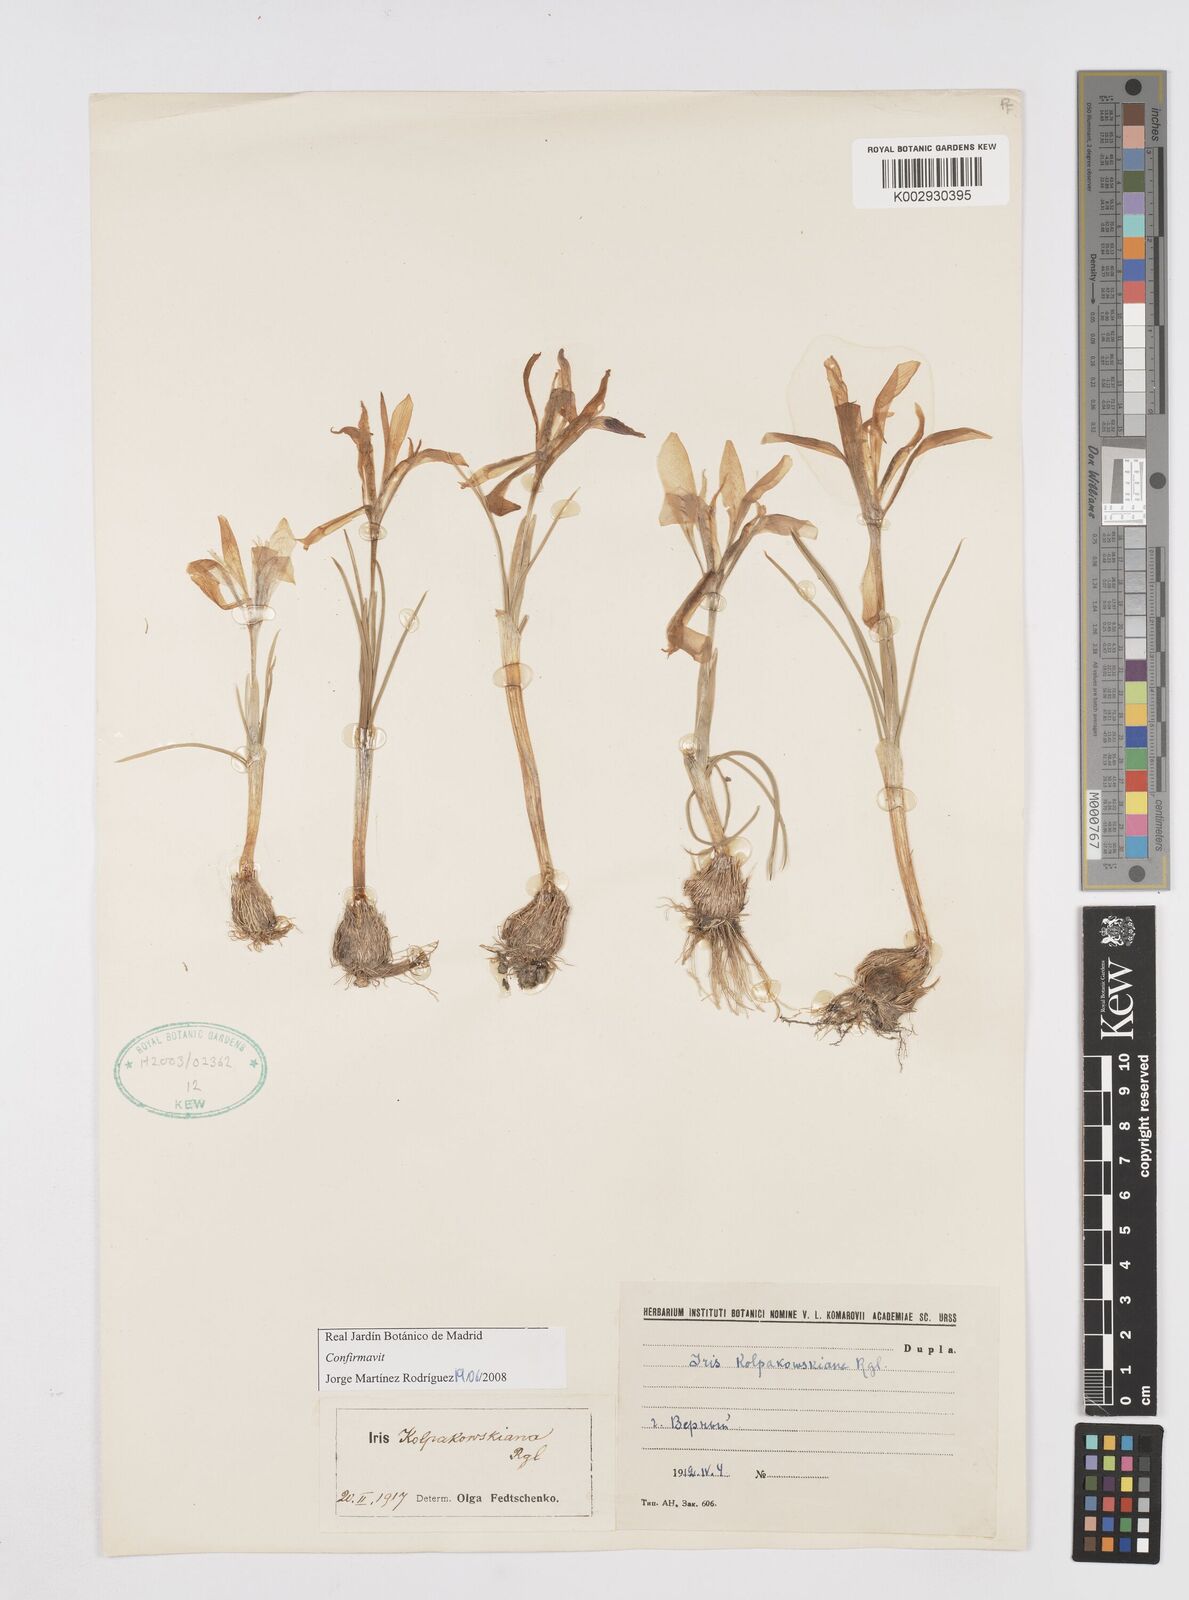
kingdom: Plantae
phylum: Tracheophyta
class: Liliopsida
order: Asparagales
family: Iridaceae
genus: Iris
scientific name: Iris kolpakowskiana
